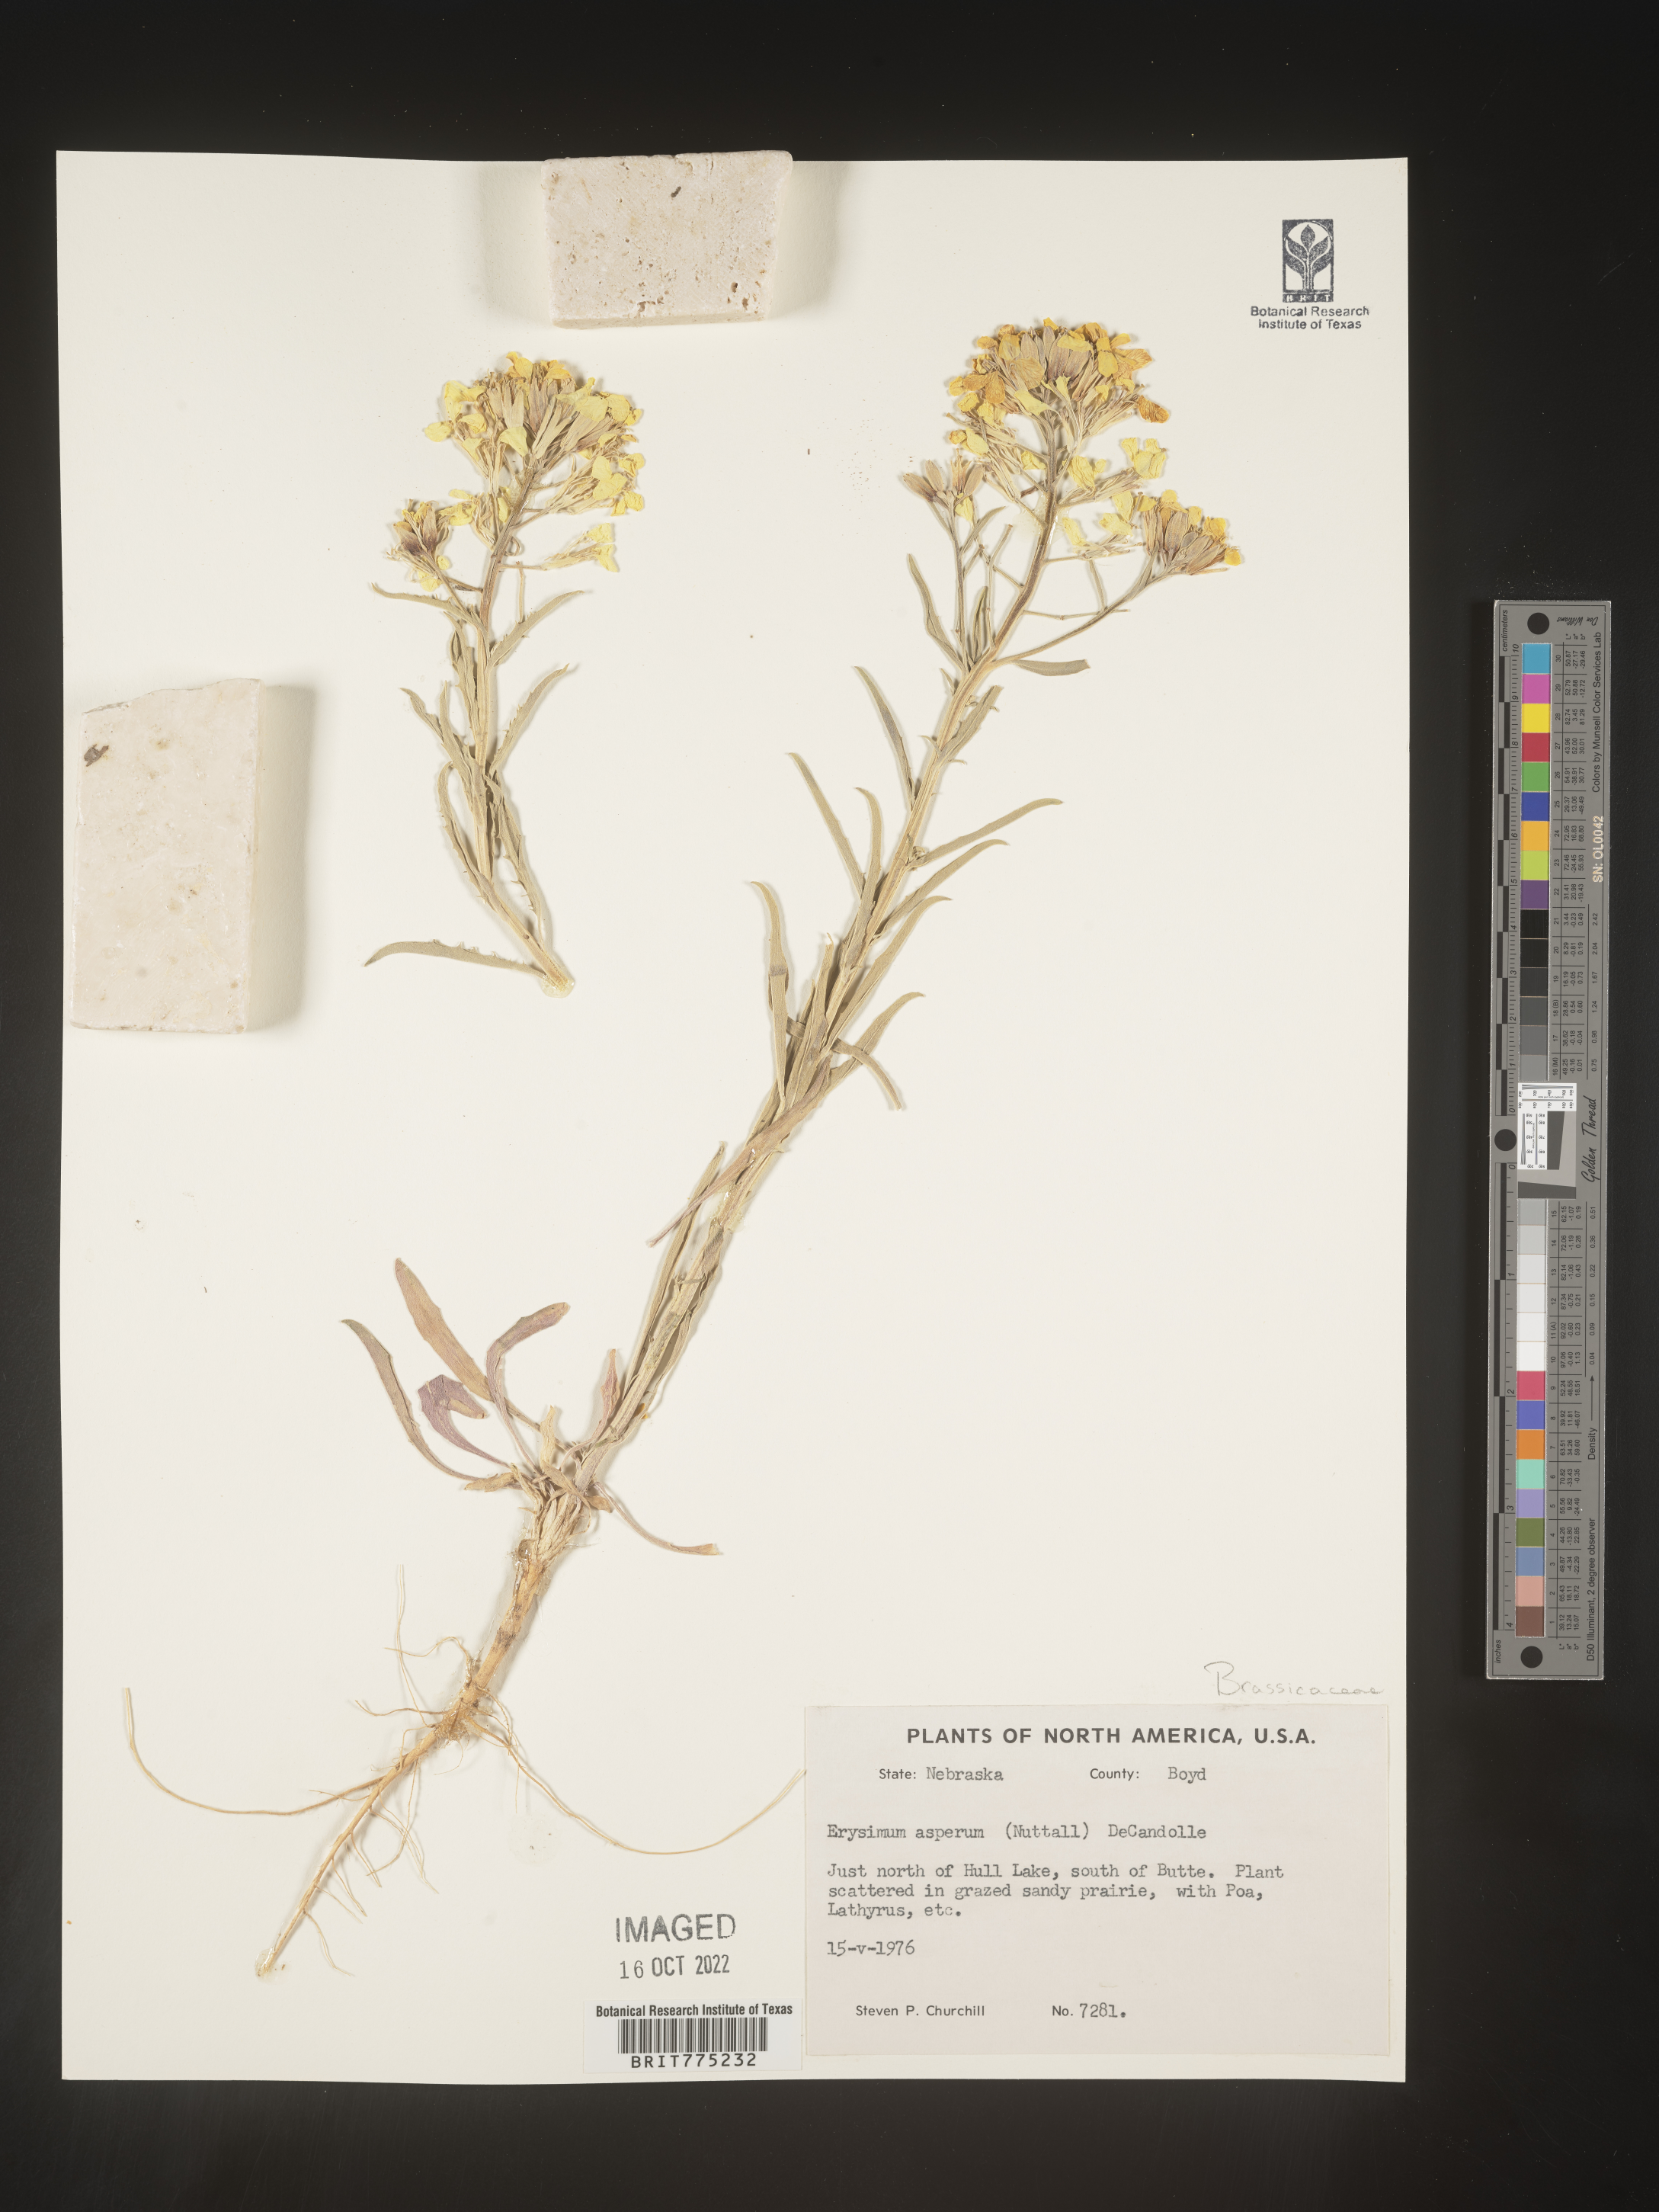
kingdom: Plantae
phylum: Tracheophyta
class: Magnoliopsida
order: Brassicales
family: Brassicaceae
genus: Erysimum
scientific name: Erysimum capitatum
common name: Western wallflower
